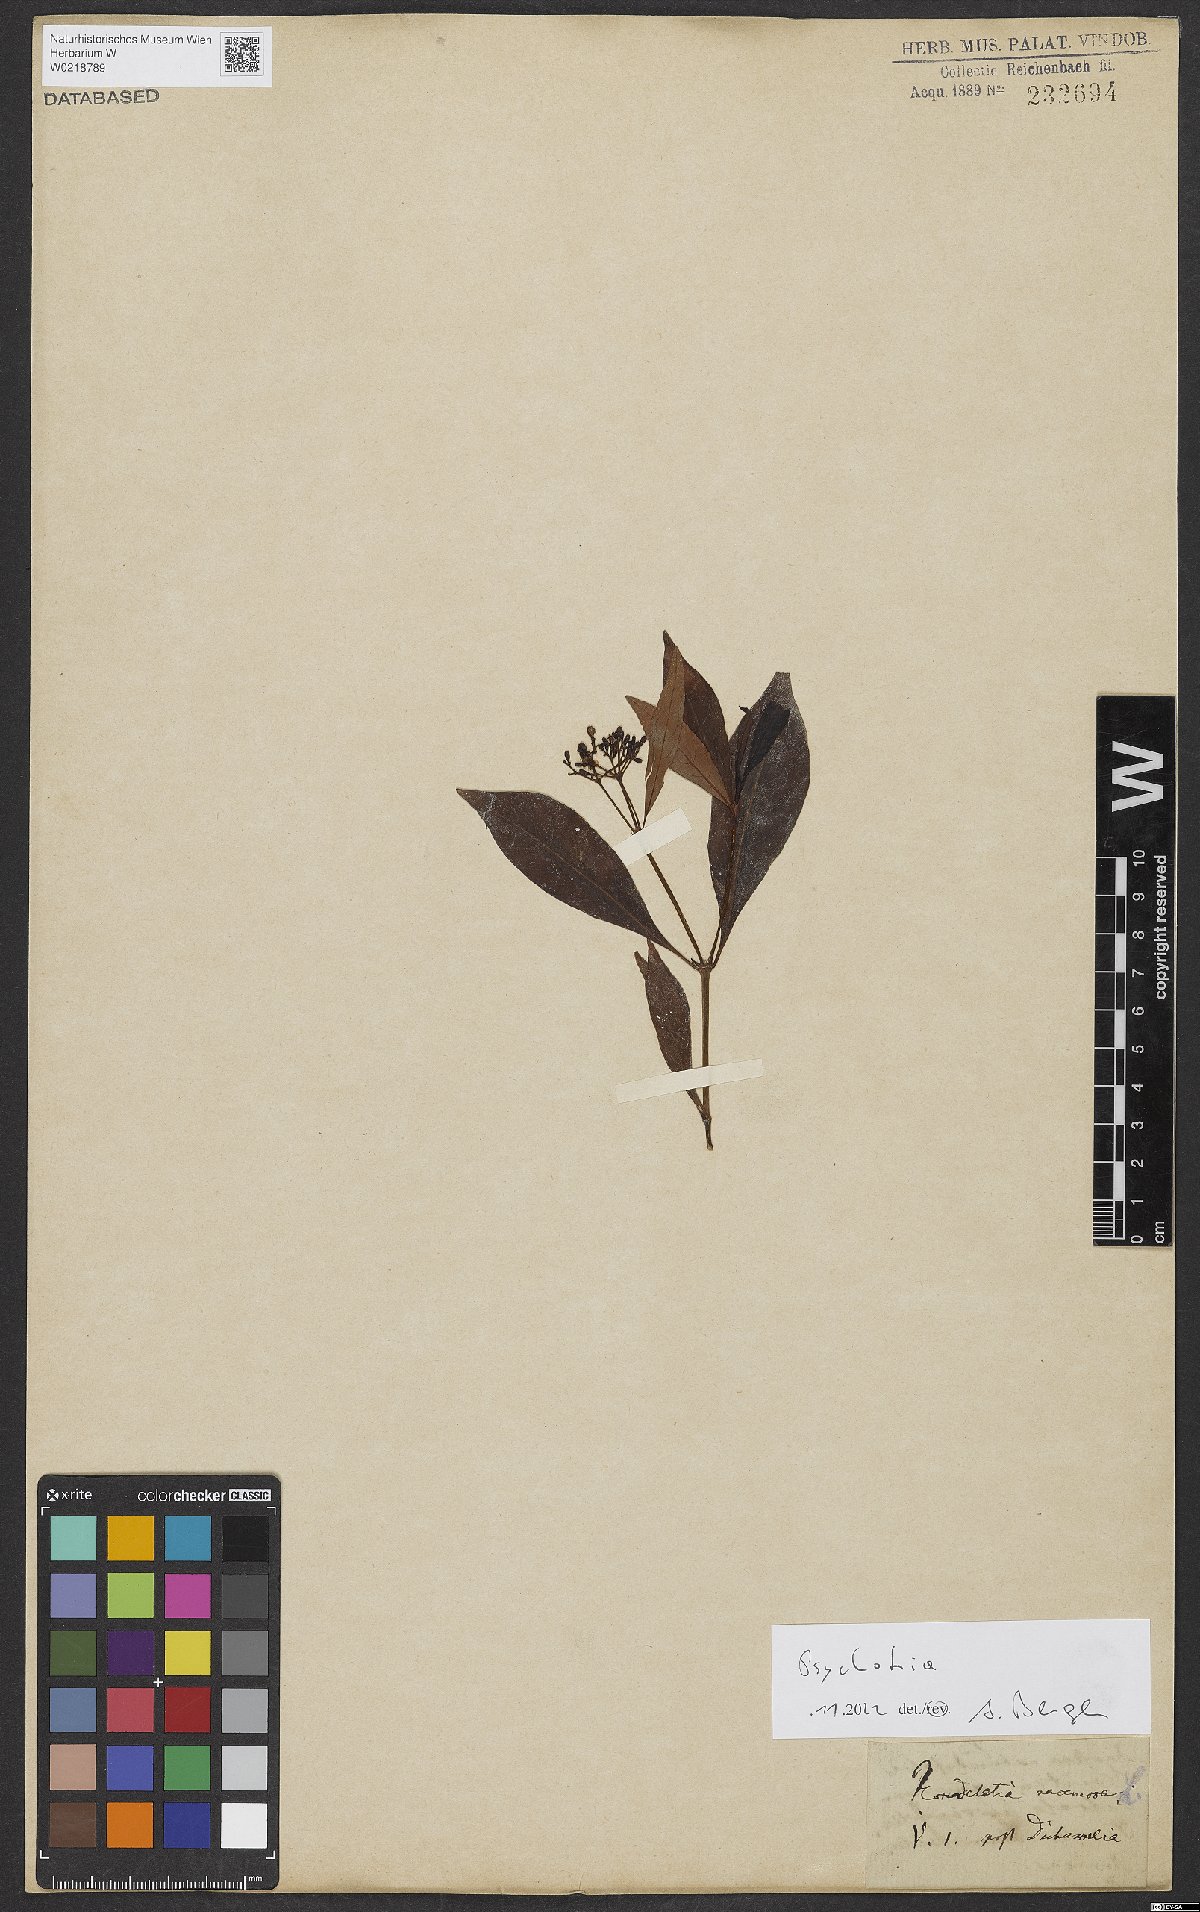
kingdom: Plantae
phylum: Tracheophyta
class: Magnoliopsida
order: Gentianales
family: Rubiaceae
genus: Psychotria
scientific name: Psychotria
